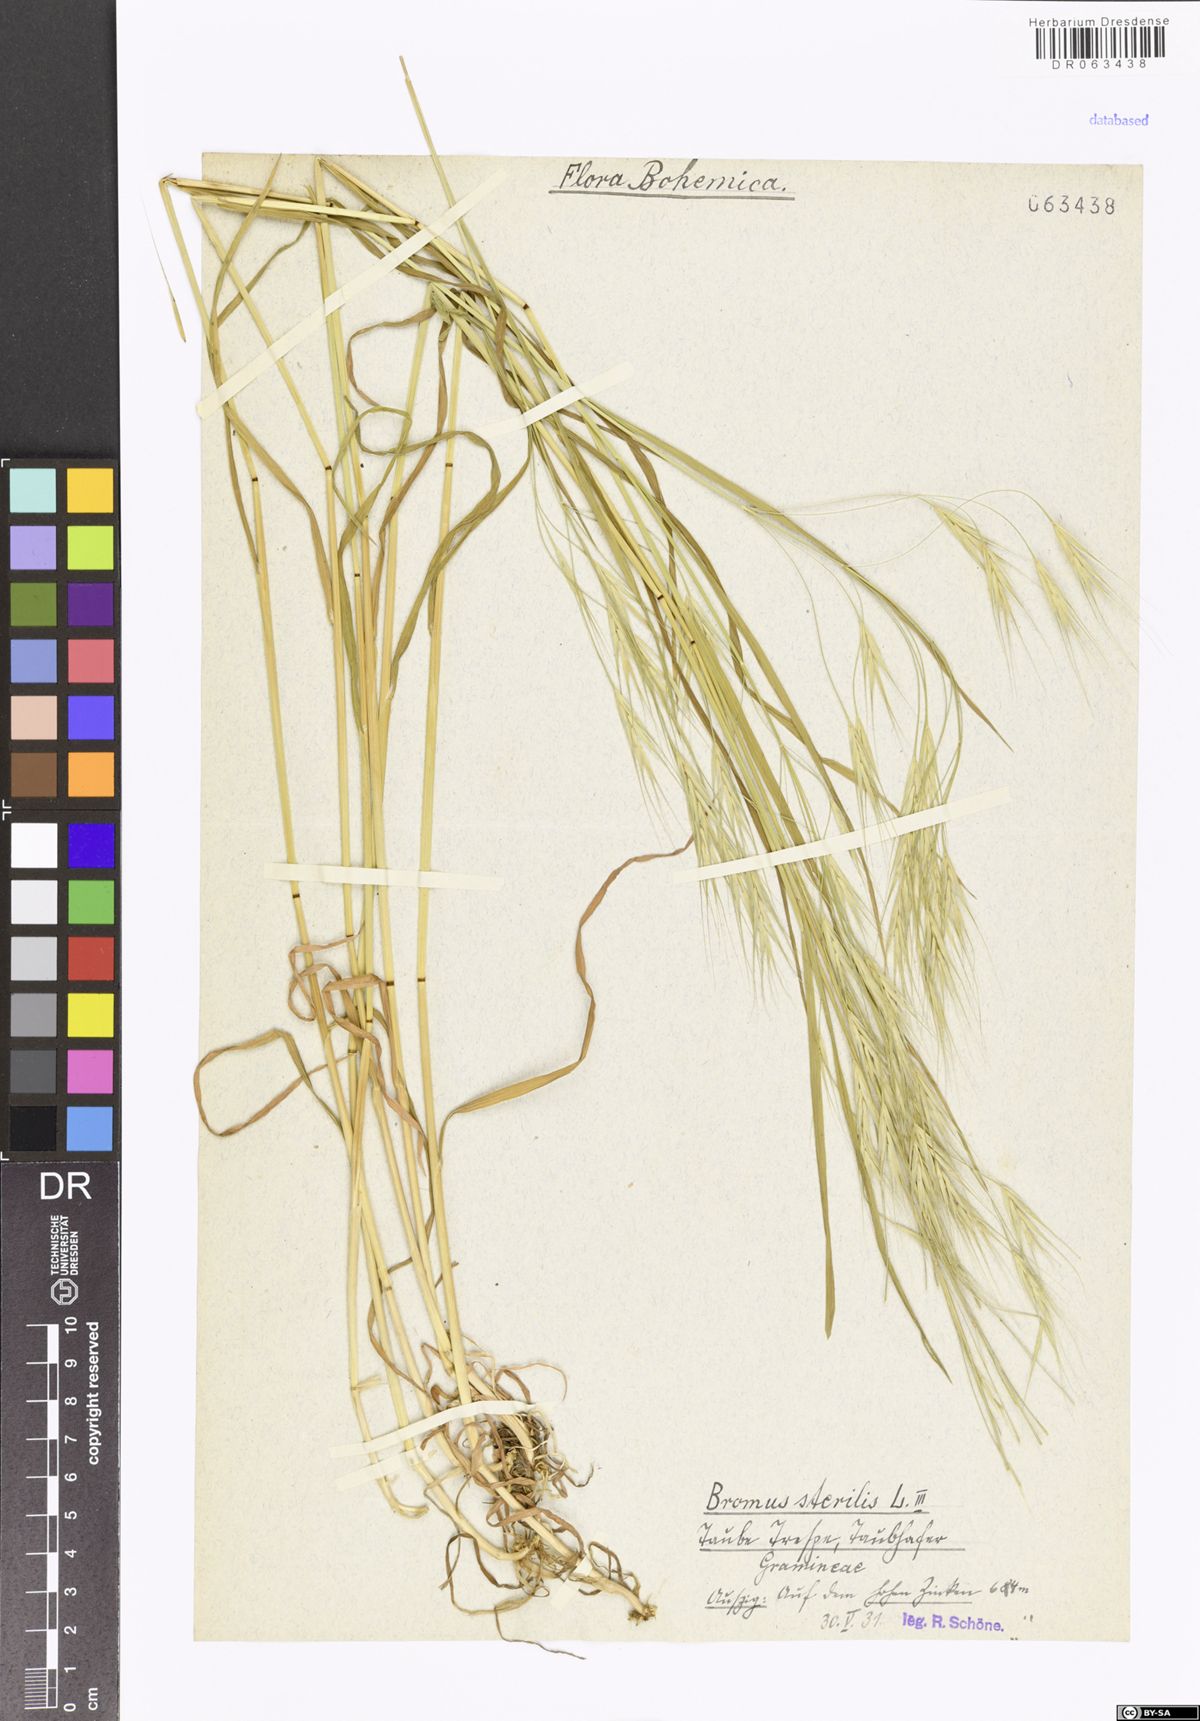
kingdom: Plantae
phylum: Tracheophyta
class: Liliopsida
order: Poales
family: Poaceae
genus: Bromus
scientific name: Bromus sterilis
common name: Poverty brome
